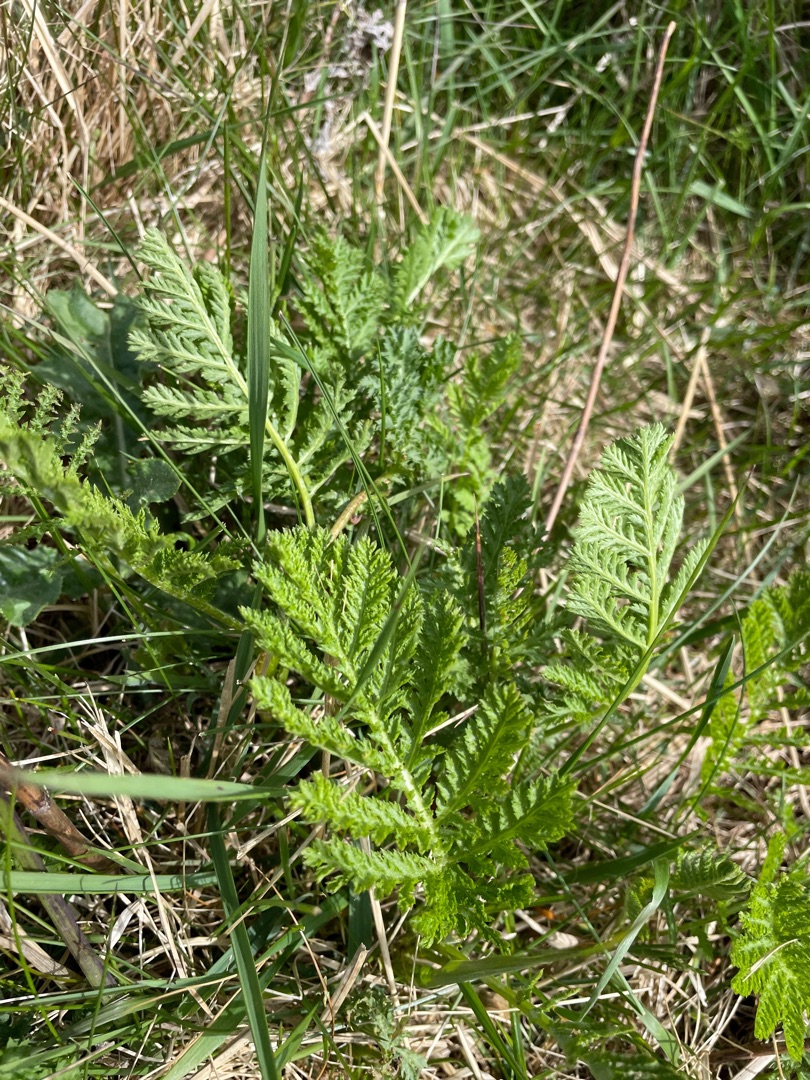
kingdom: Plantae
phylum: Tracheophyta
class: Magnoliopsida
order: Asterales
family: Asteraceae
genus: Tanacetum
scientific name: Tanacetum vulgare
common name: Rejnfan
